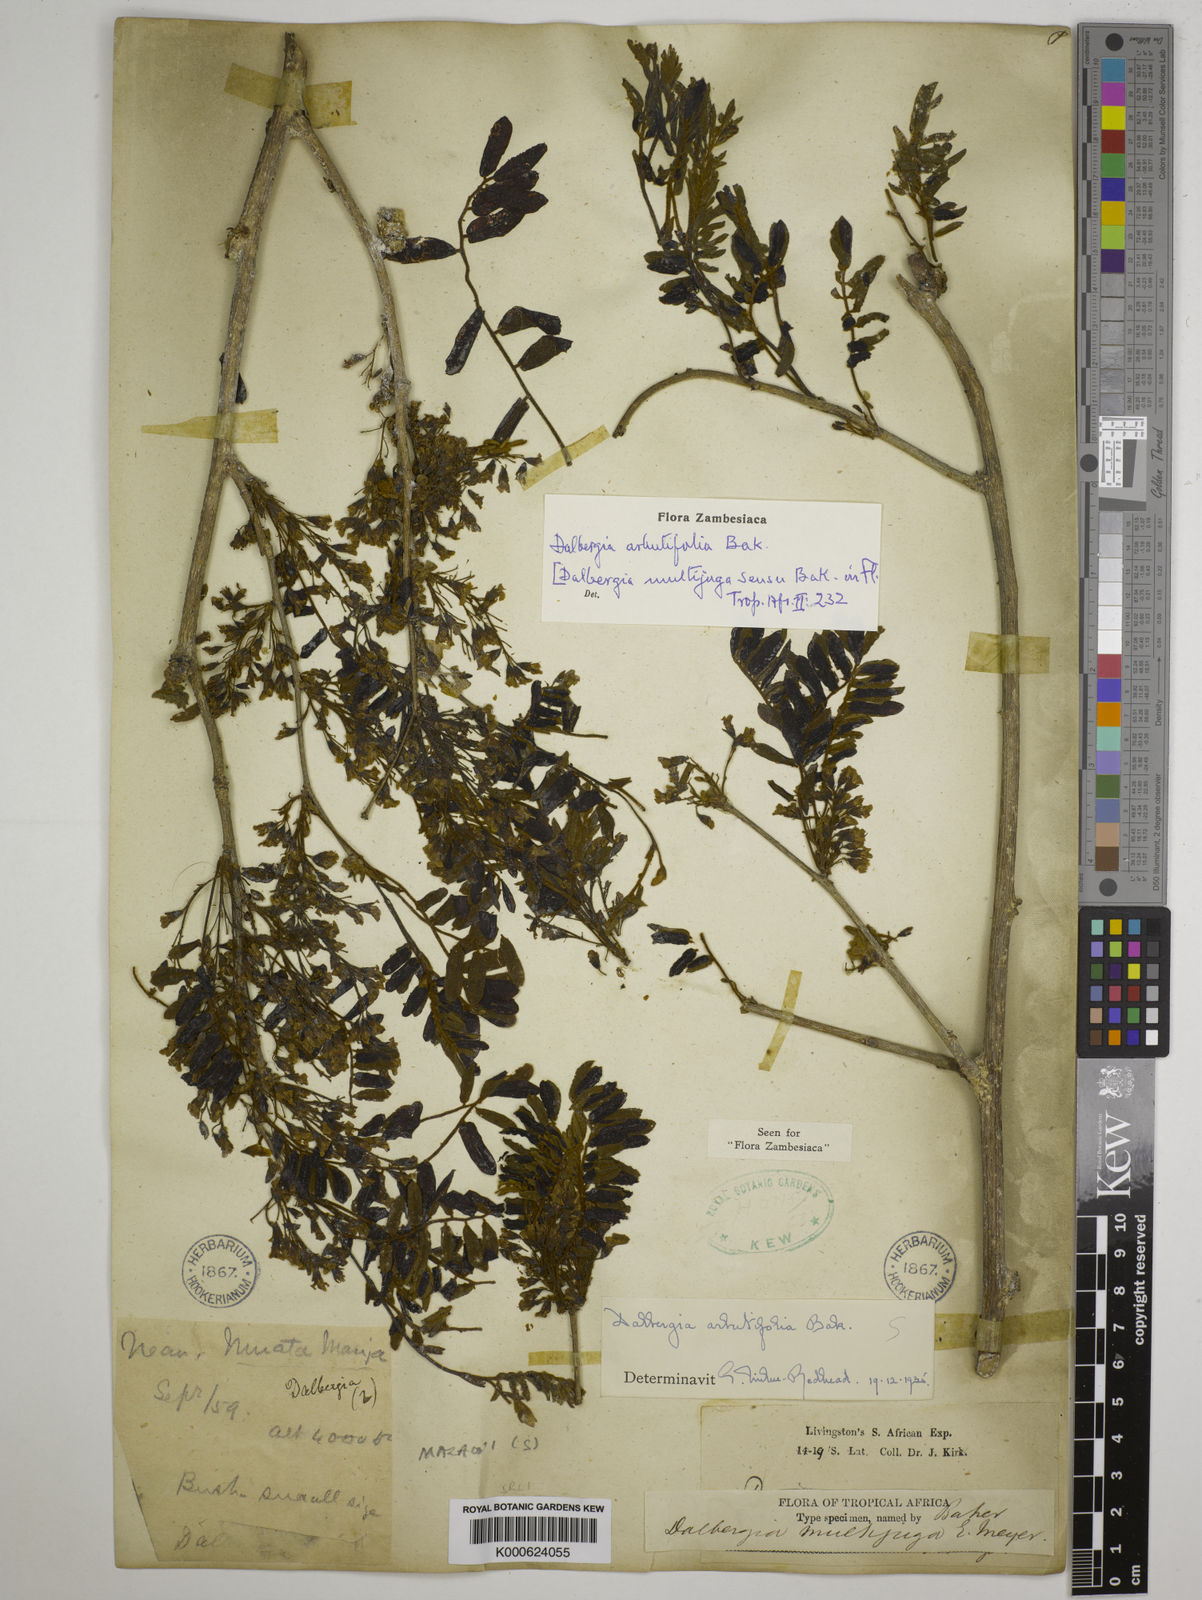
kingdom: Plantae
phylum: Tracheophyta
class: Magnoliopsida
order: Fabales
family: Fabaceae
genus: Dalbergia
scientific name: Dalbergia arbutifolia
